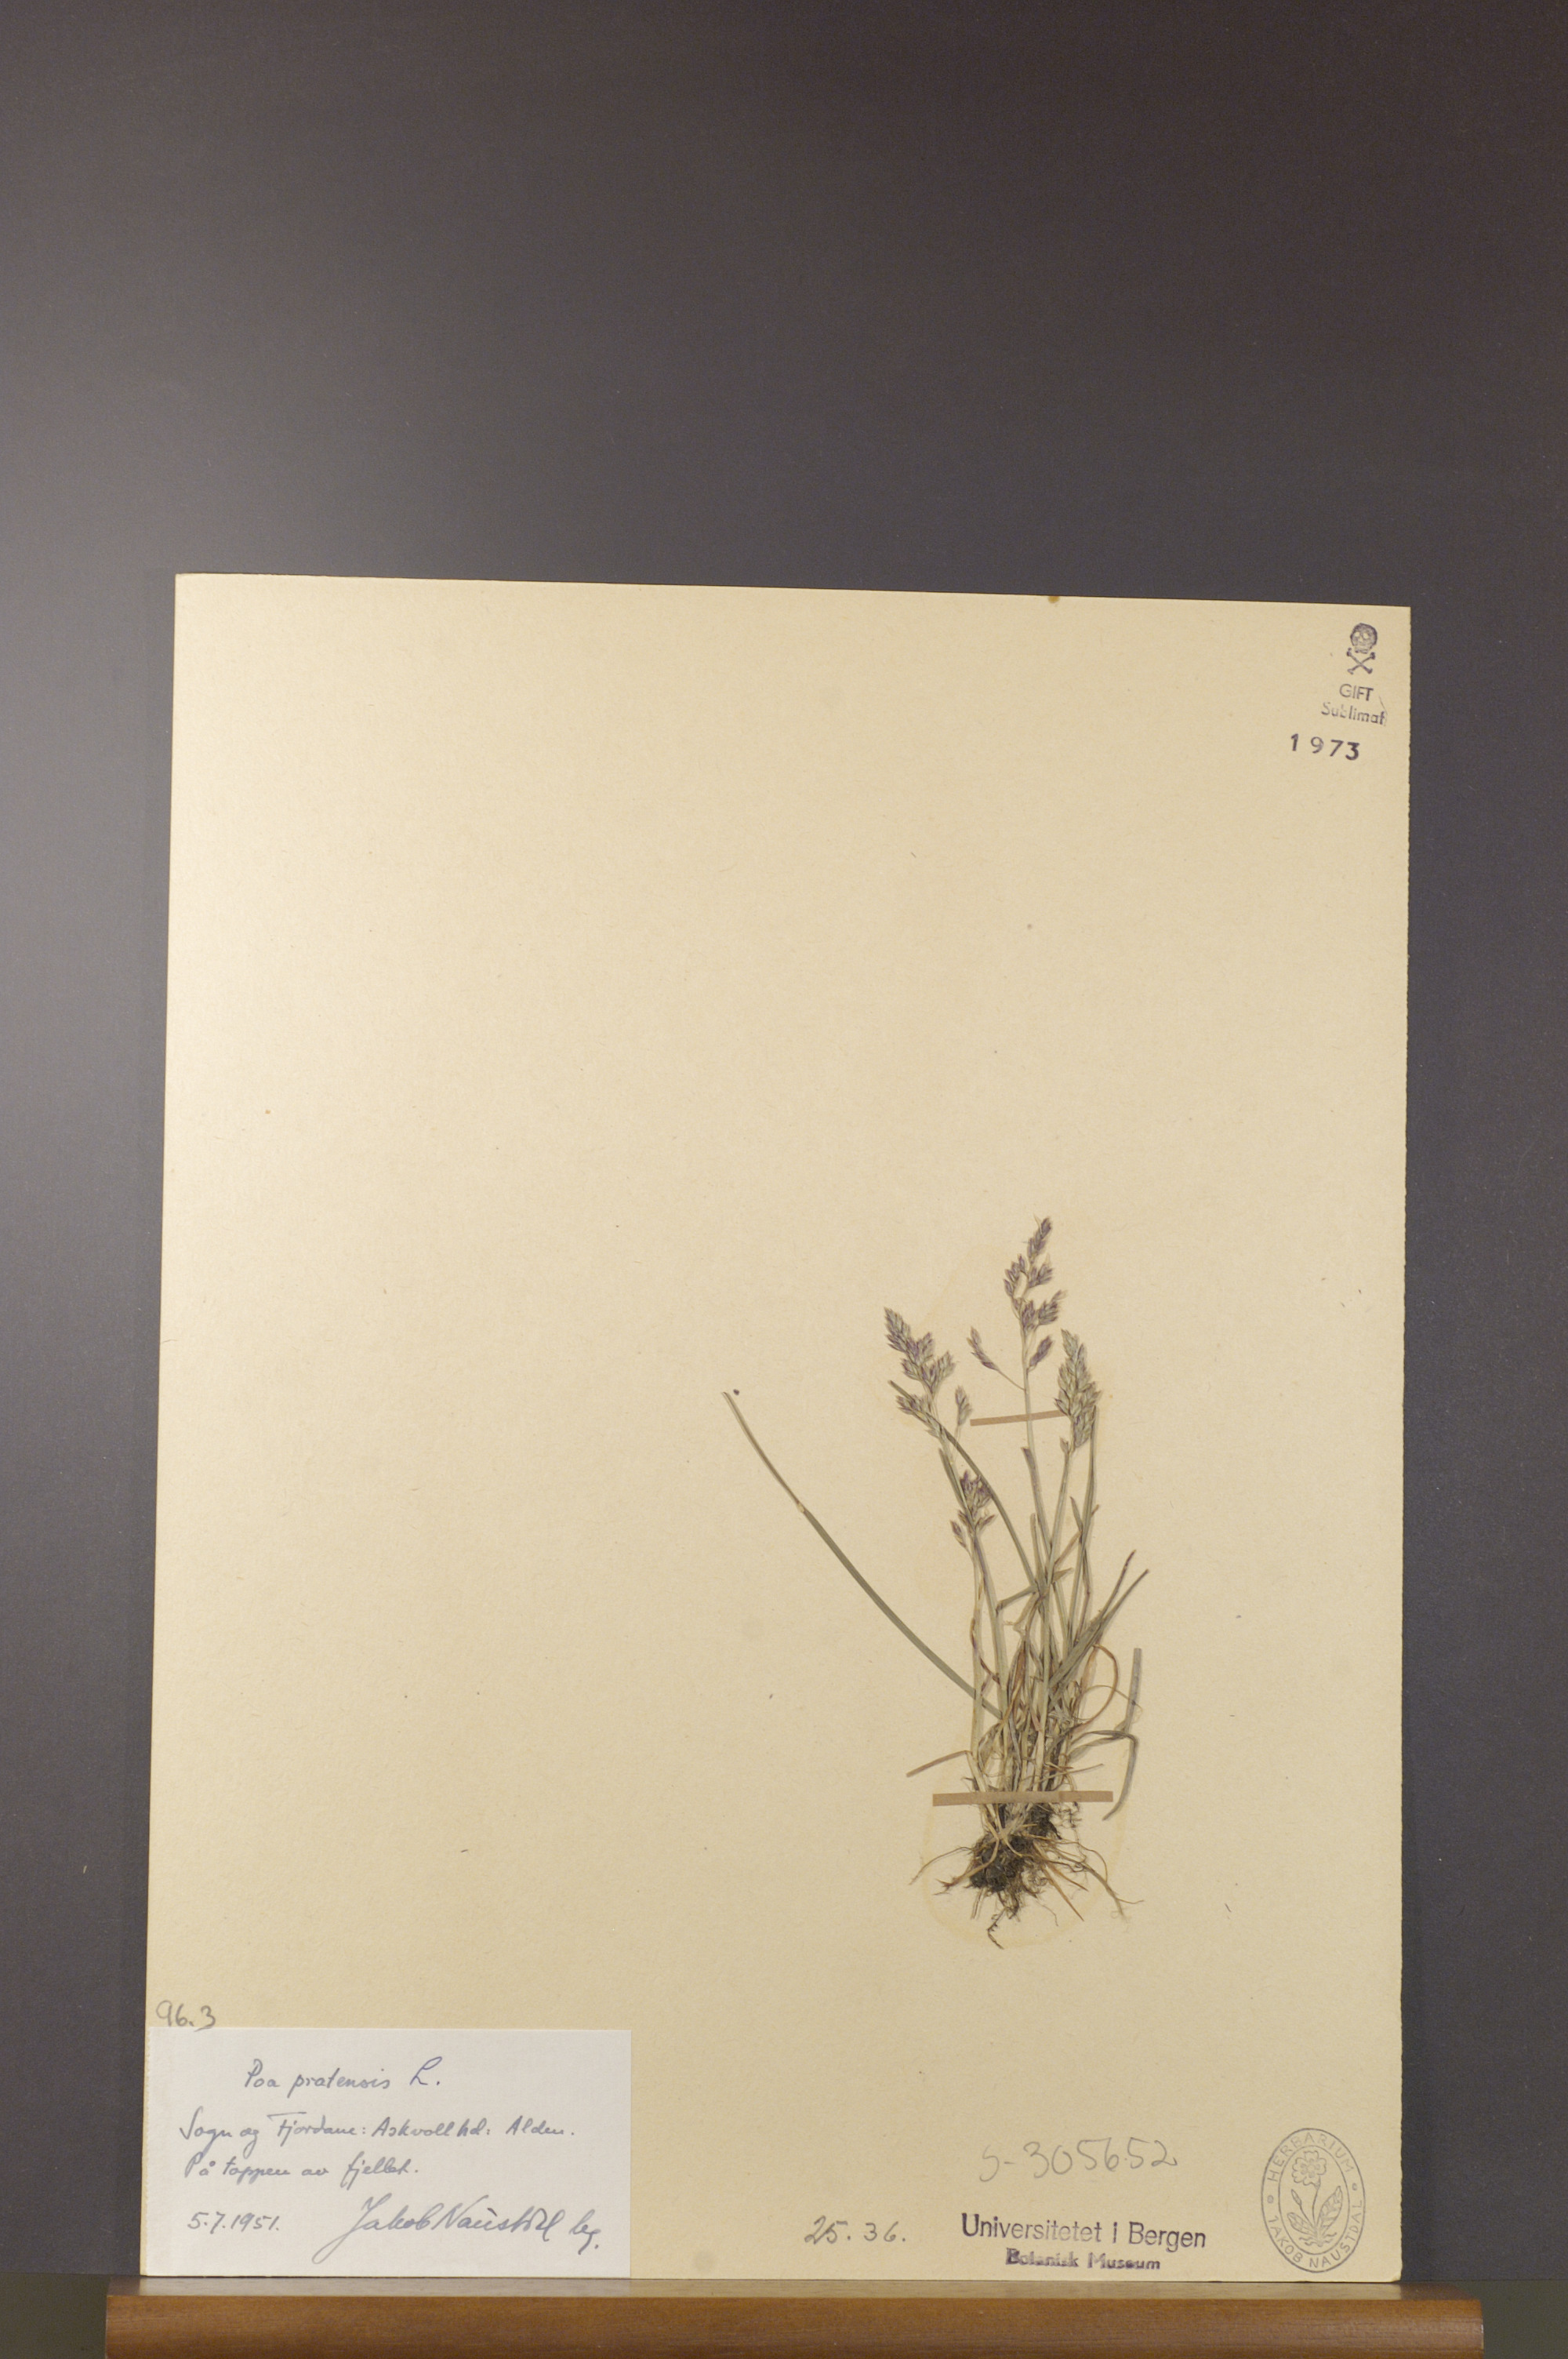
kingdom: Plantae
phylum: Tracheophyta
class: Liliopsida
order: Poales
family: Poaceae
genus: Poa
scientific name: Poa pratensis
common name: Kentucky bluegrass
